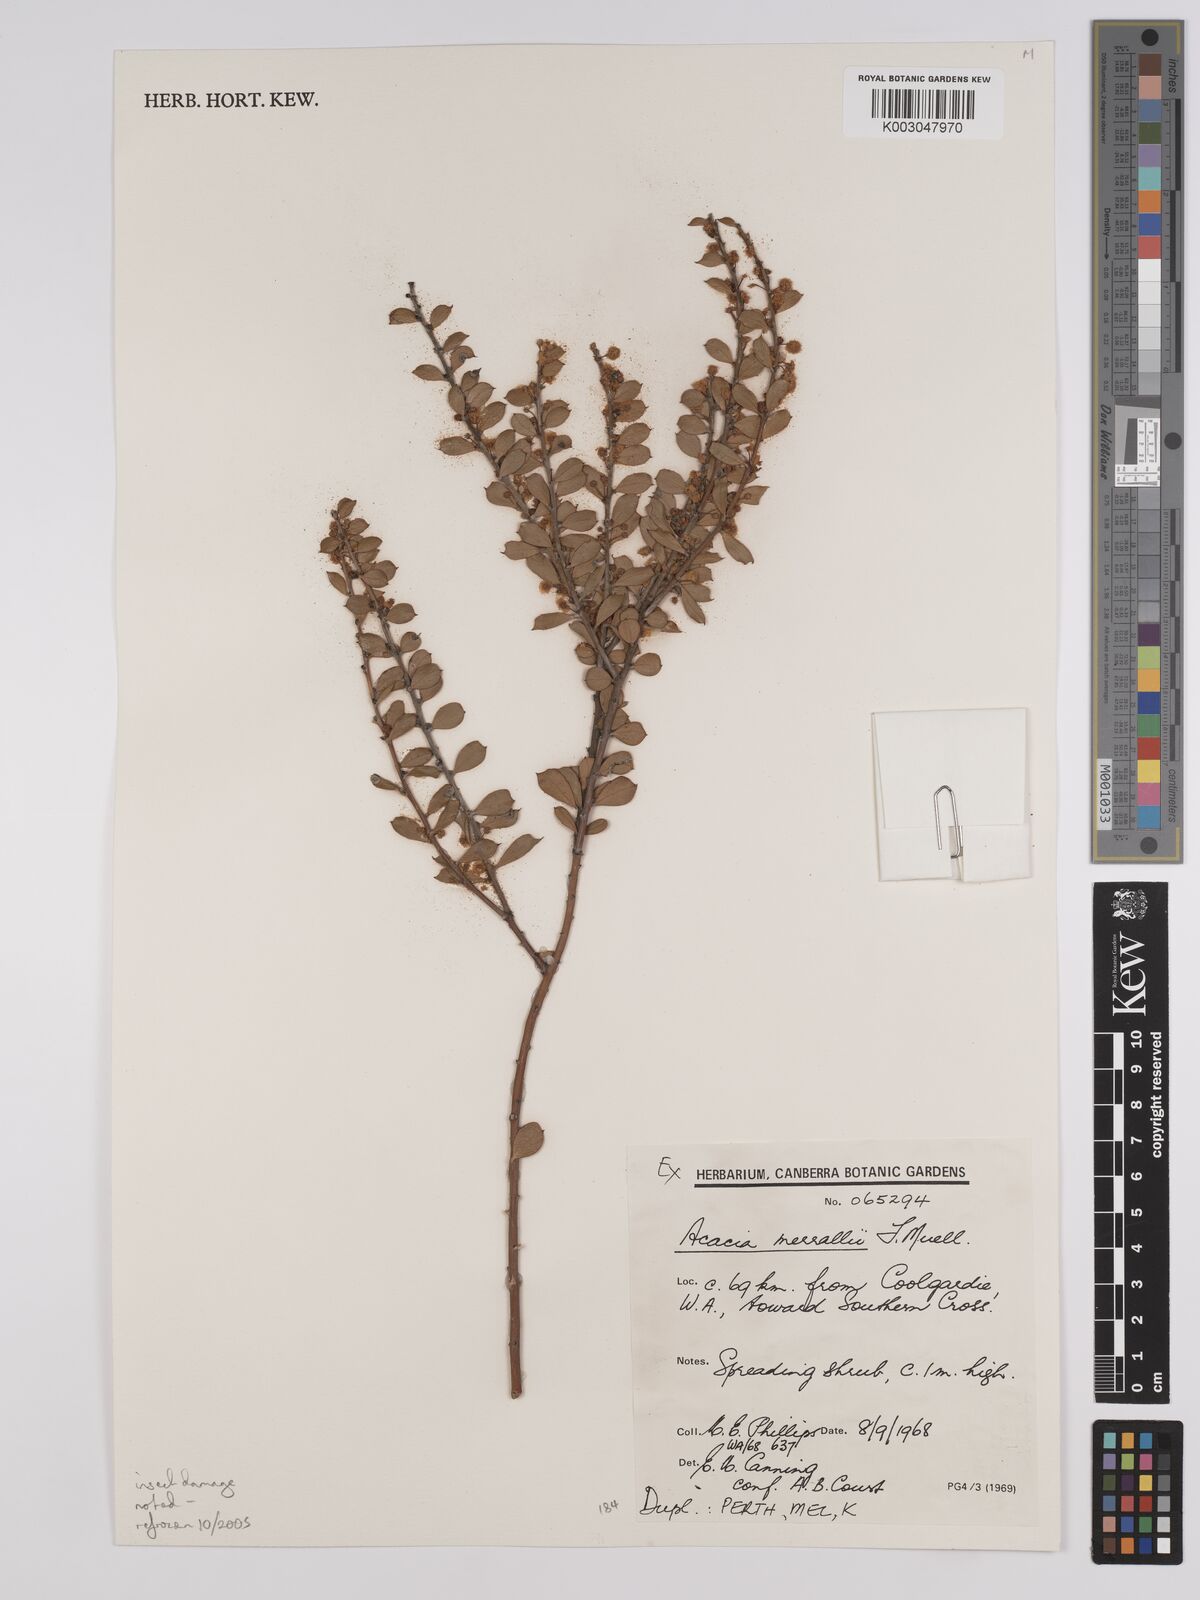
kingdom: Plantae
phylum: Tracheophyta
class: Magnoliopsida
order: Fabales
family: Fabaceae
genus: Acacia
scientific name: Acacia merrallii
